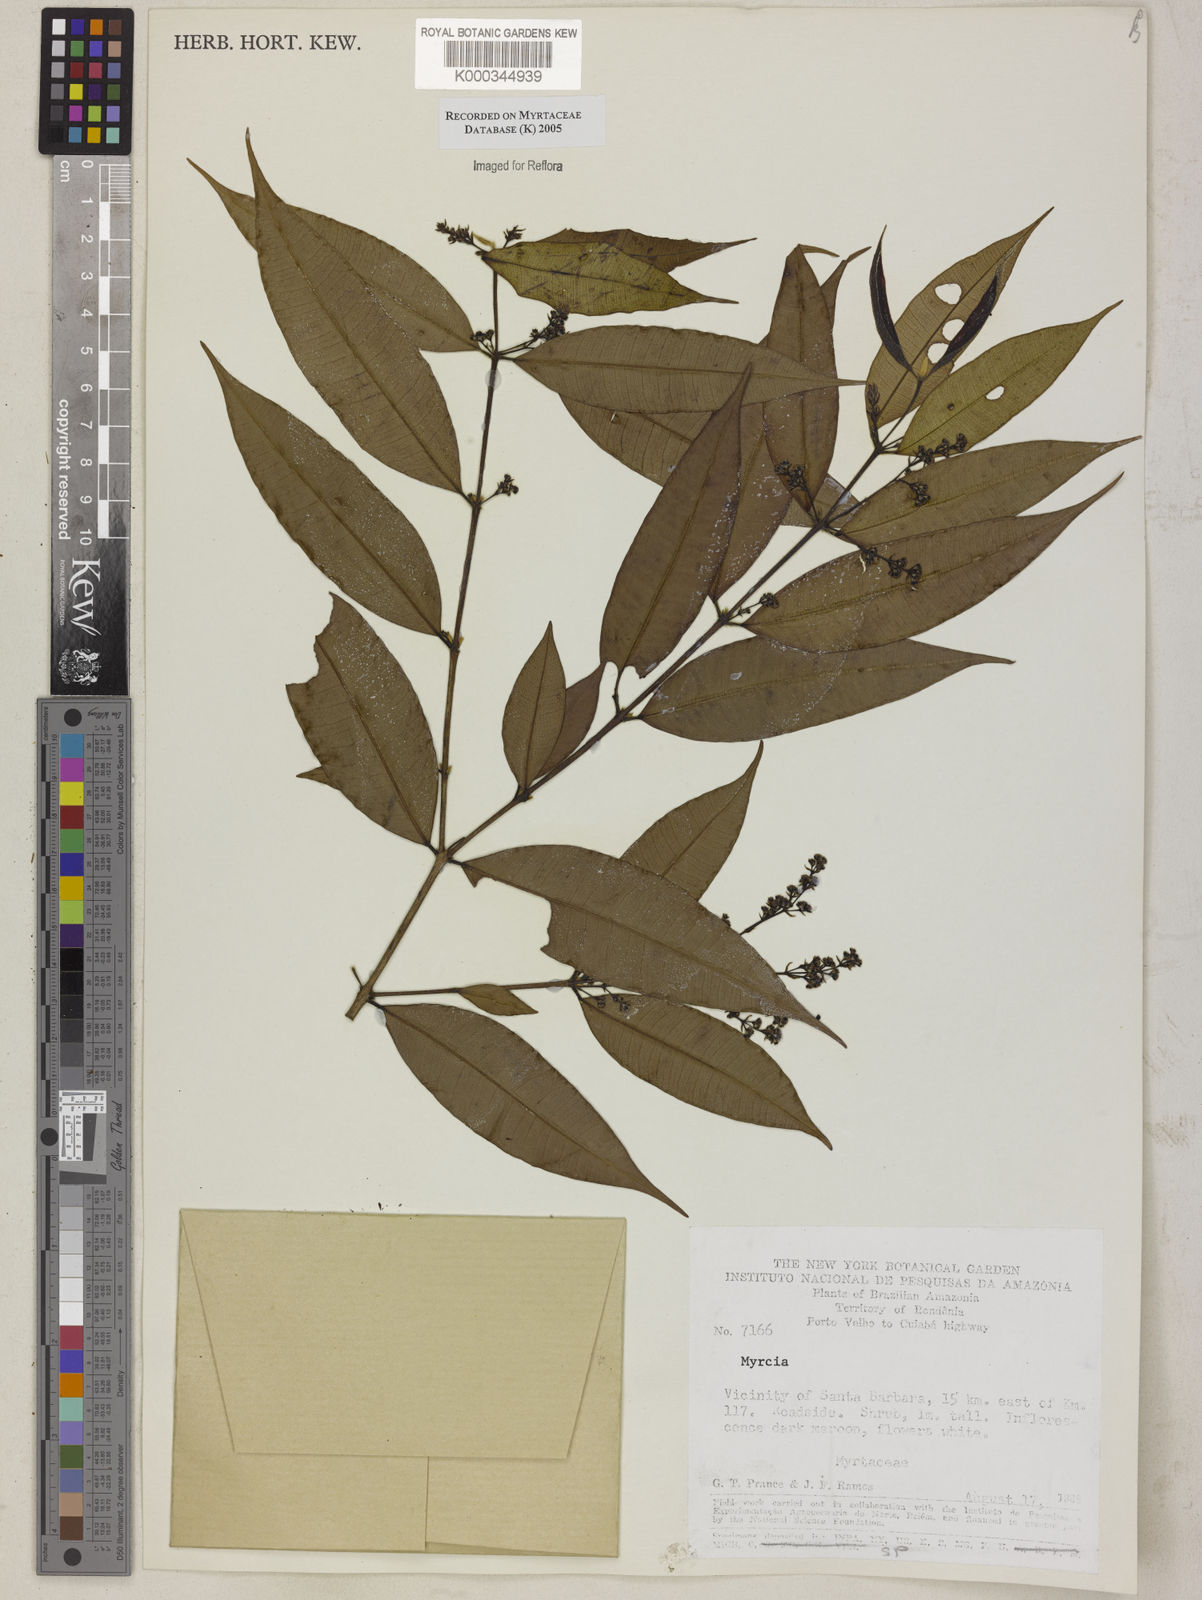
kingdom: Plantae
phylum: Tracheophyta
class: Magnoliopsida
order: Myrtales
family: Myrtaceae
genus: Myrcia
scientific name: Myrcia
